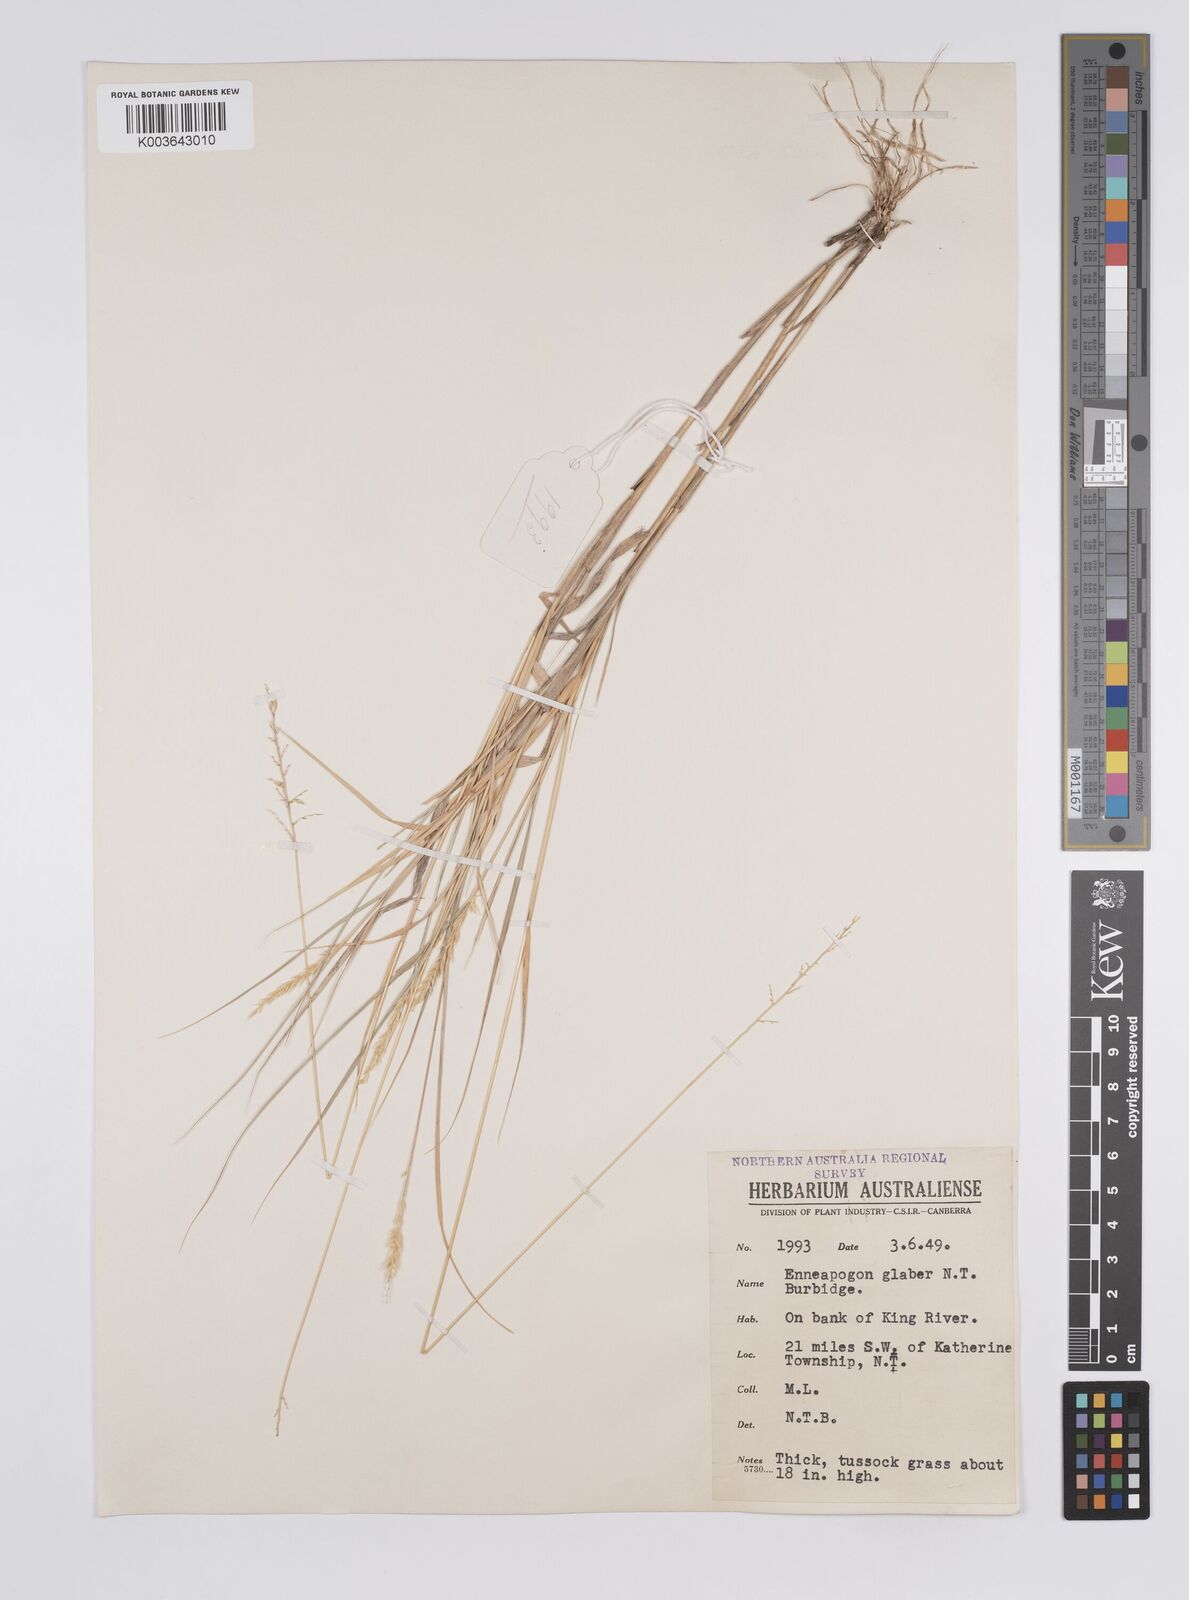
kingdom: Plantae
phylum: Tracheophyta
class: Liliopsida
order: Poales
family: Poaceae
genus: Enneapogon
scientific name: Enneapogon purpurascens
